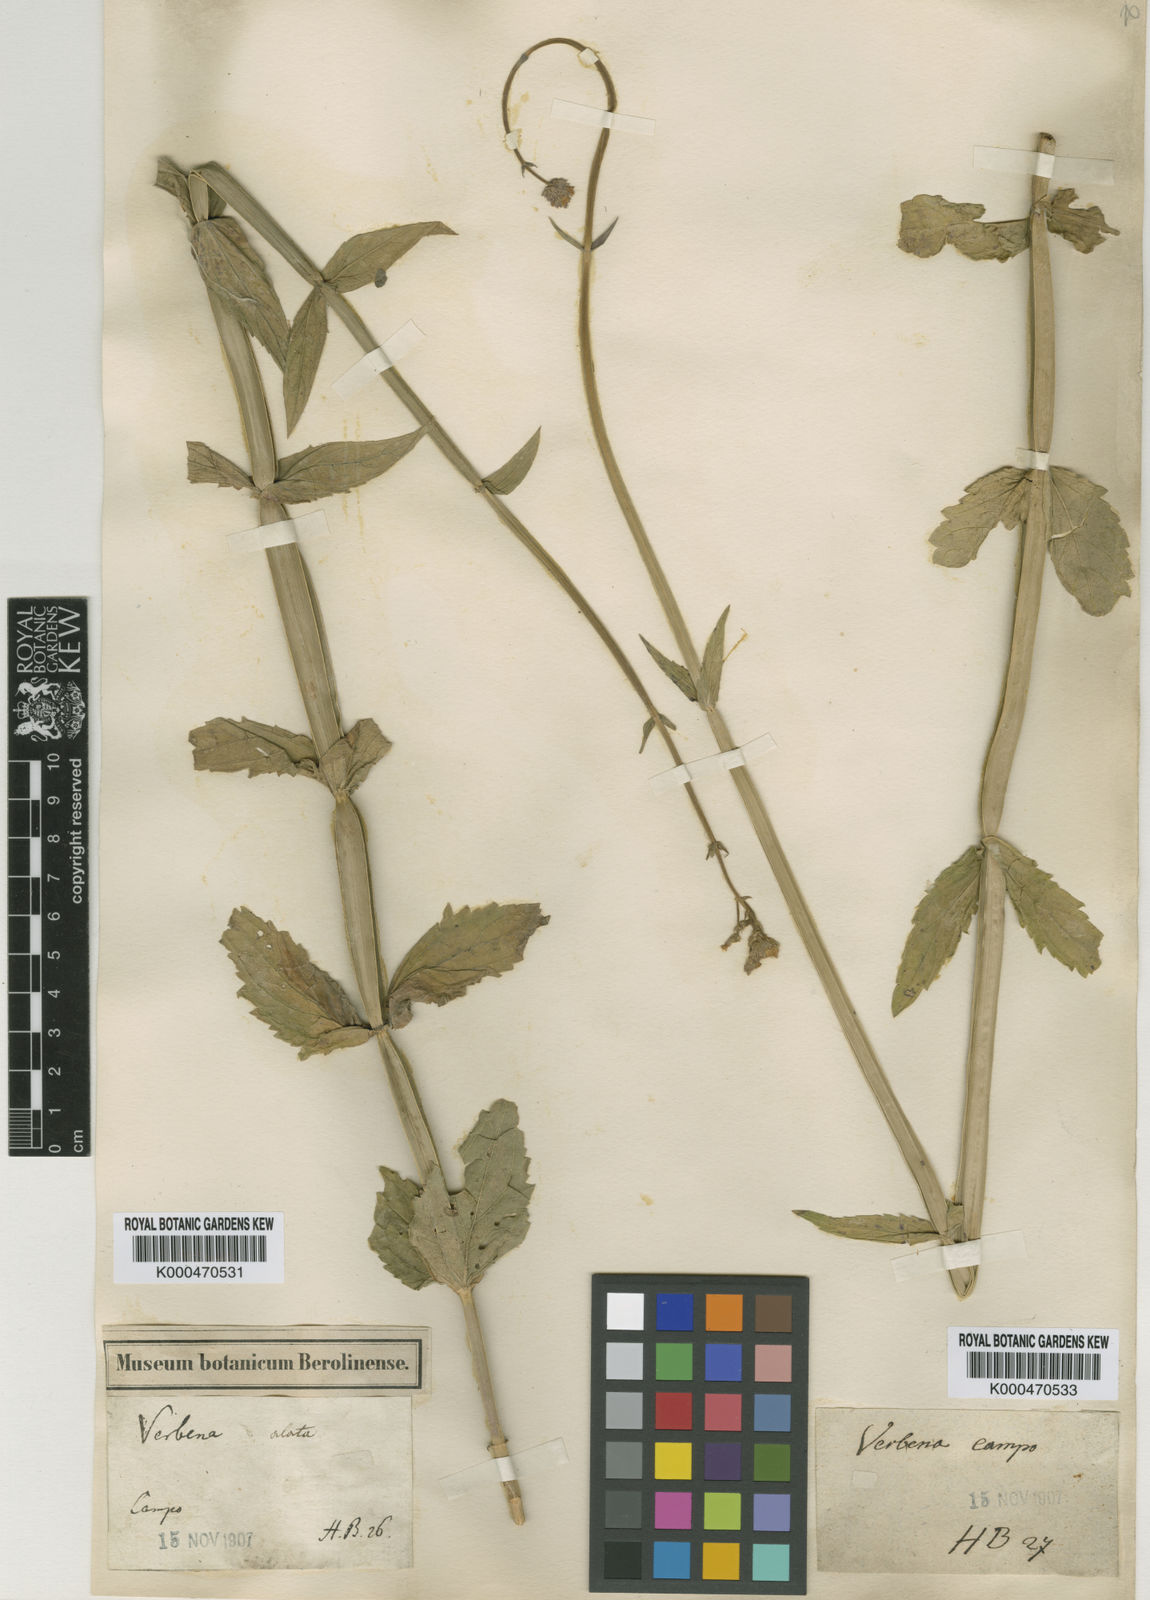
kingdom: Plantae
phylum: Tracheophyta
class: Magnoliopsida
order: Lamiales
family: Verbenaceae
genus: Verbena
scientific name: Verbena alata
